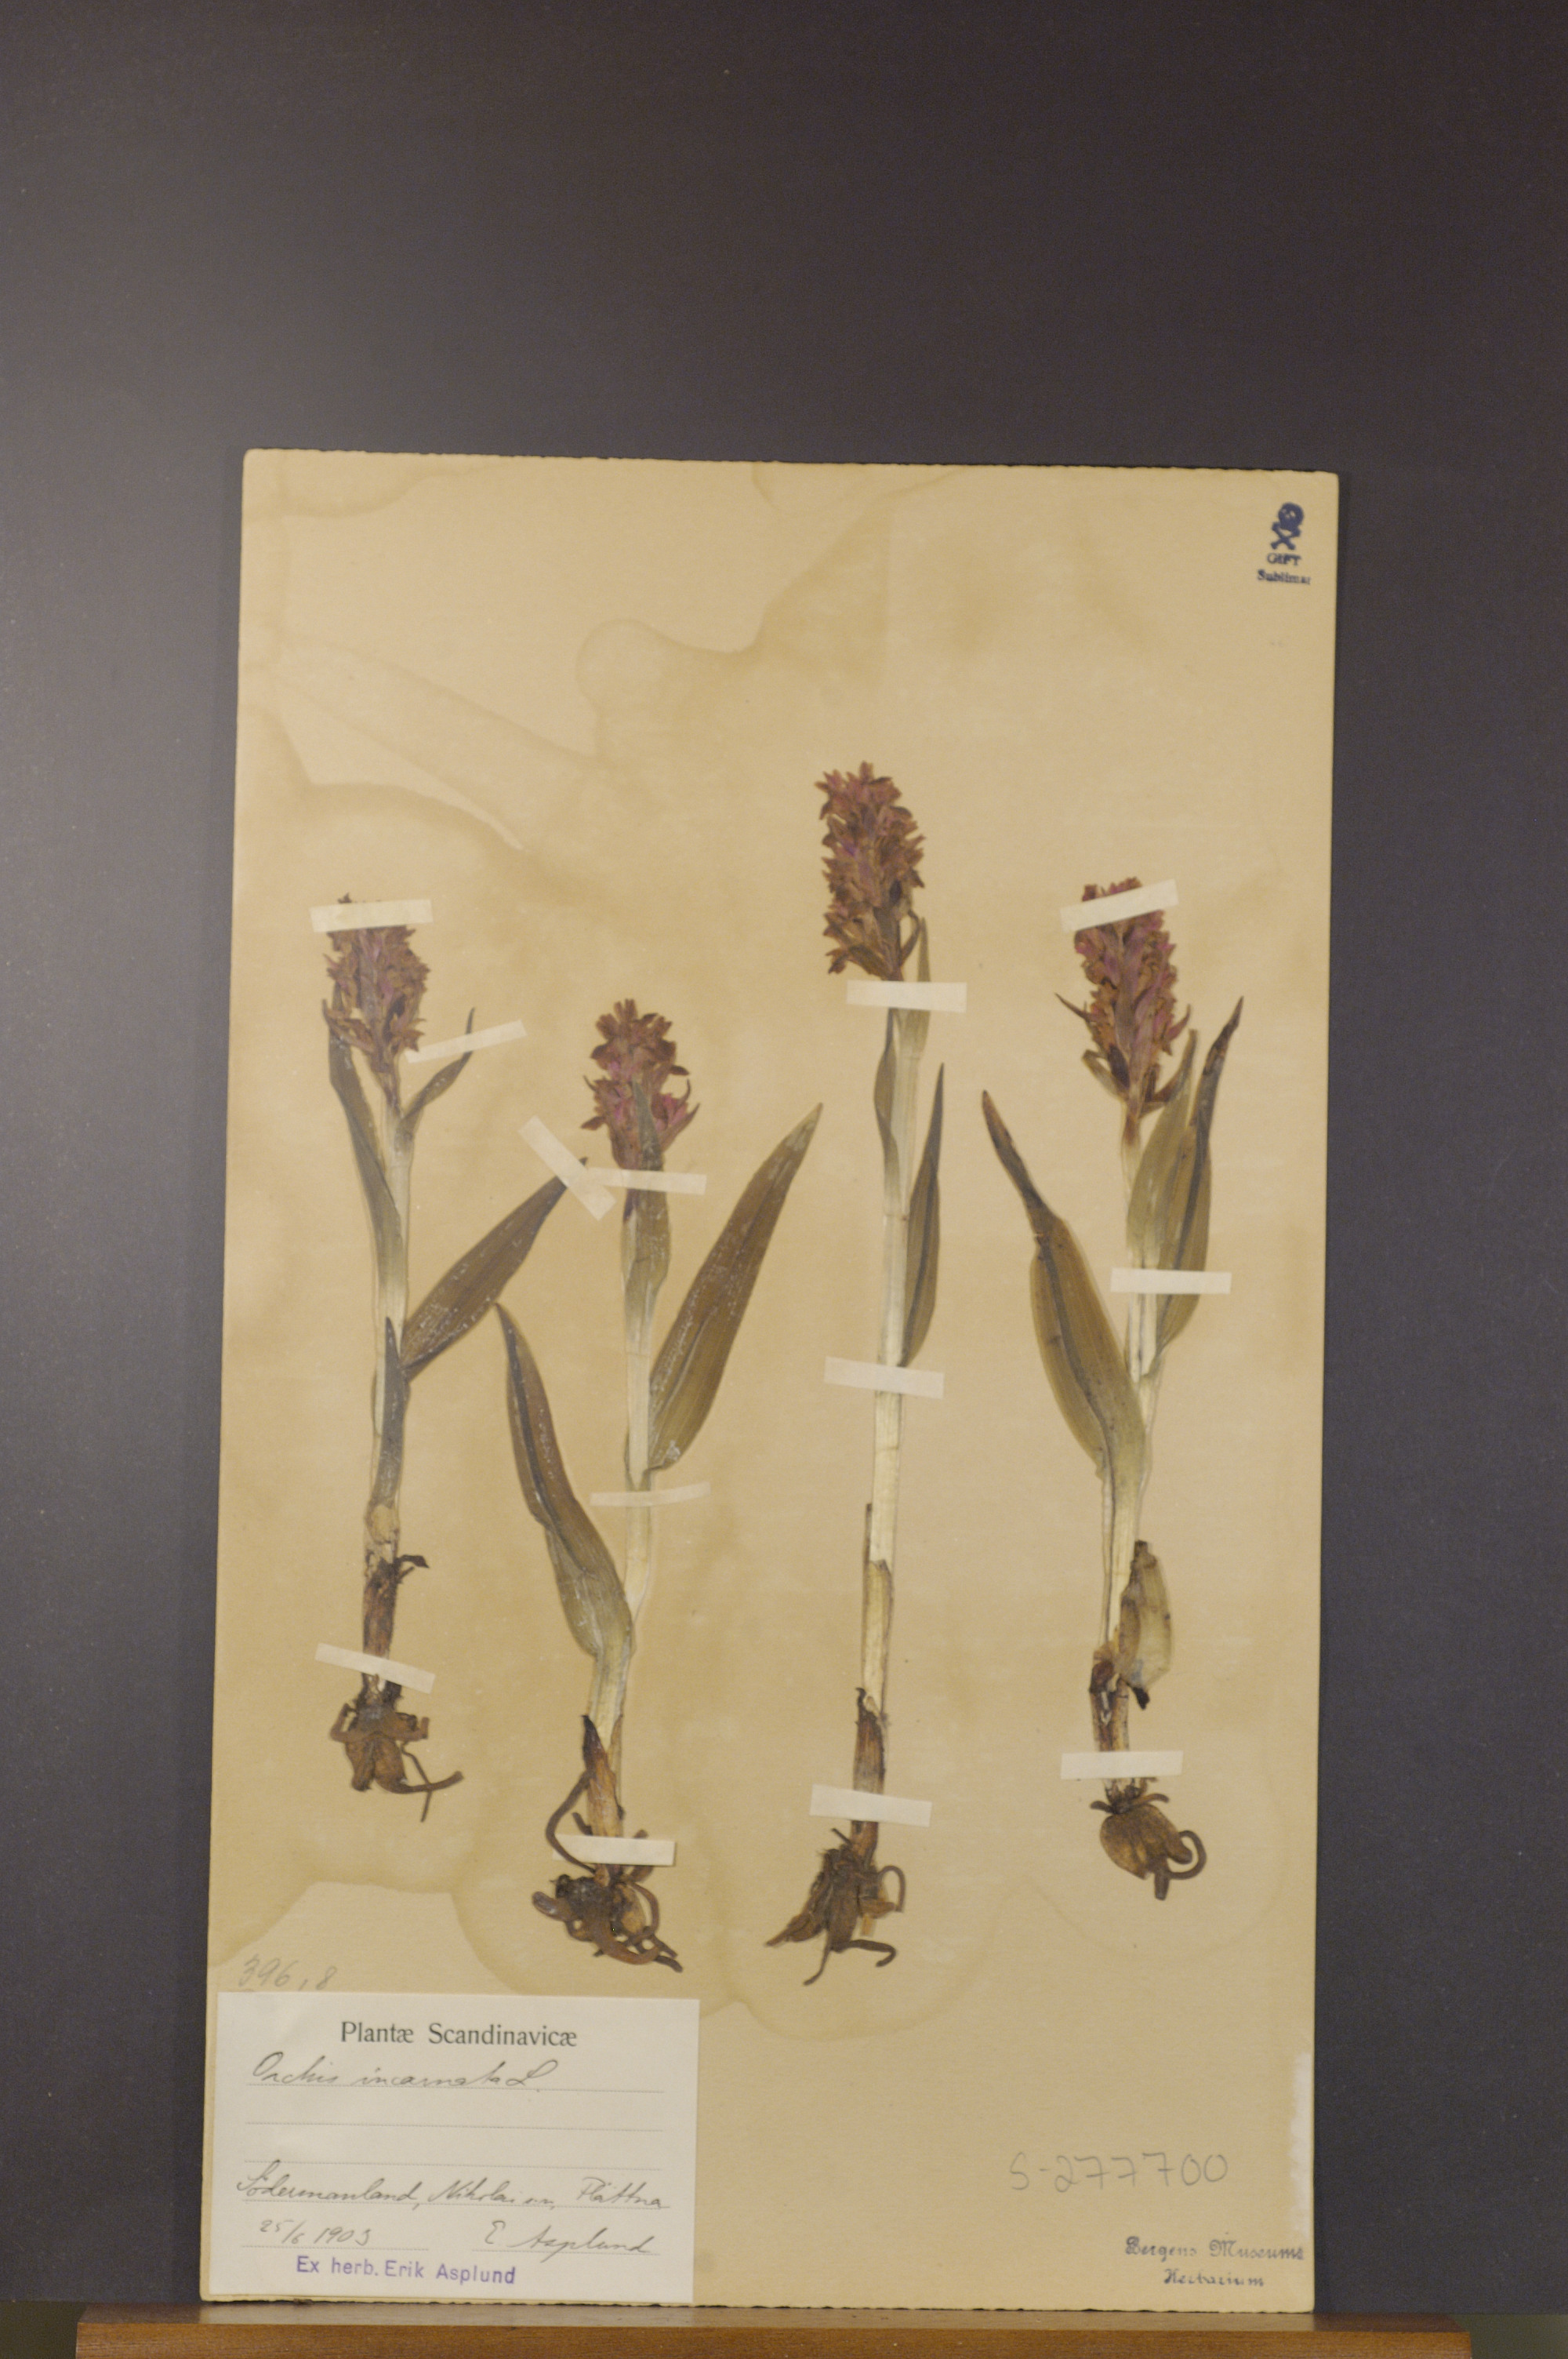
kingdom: Plantae
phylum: Tracheophyta
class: Liliopsida
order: Asparagales
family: Orchidaceae
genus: Dactylorhiza
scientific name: Dactylorhiza incarnata
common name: Early marsh-orchid
